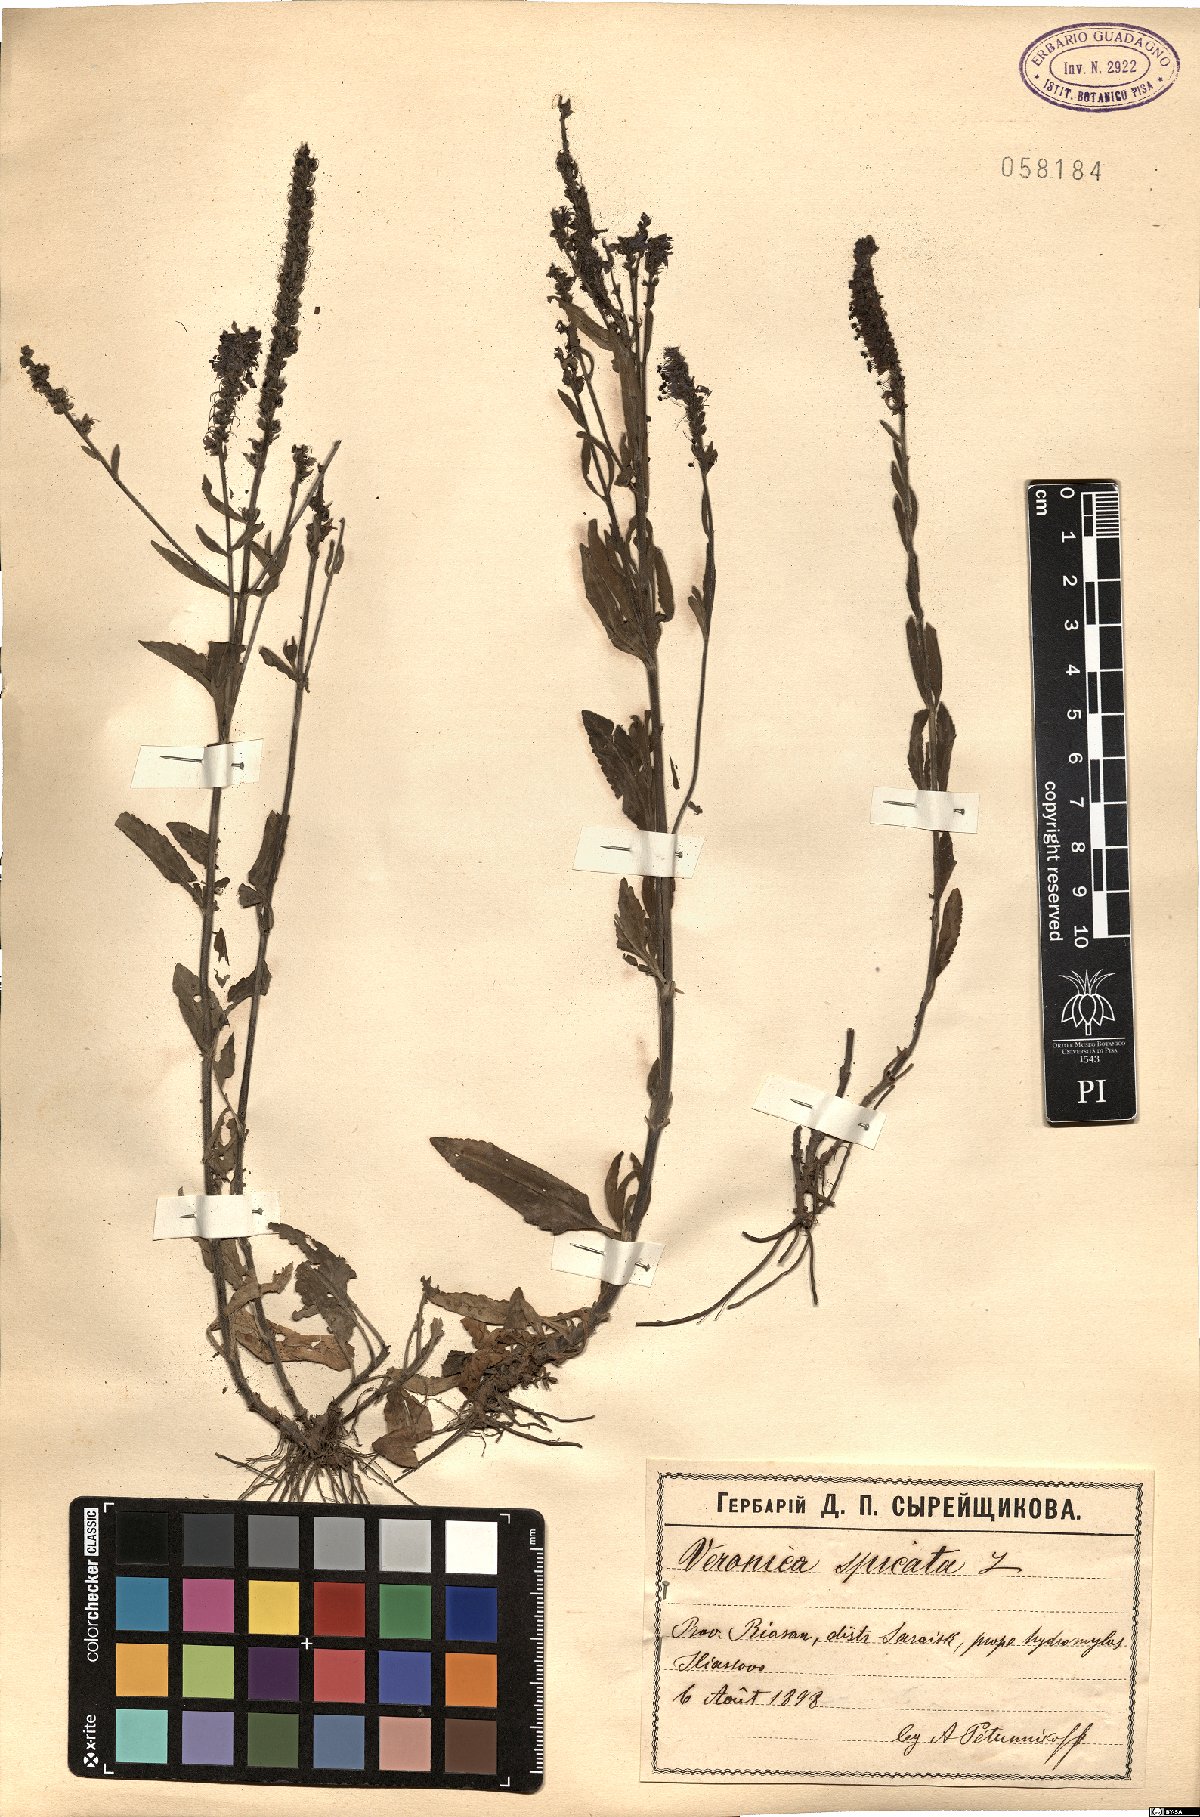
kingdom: Plantae
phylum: Tracheophyta
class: Magnoliopsida
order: Lamiales
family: Plantaginaceae
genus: Veronica
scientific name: Veronica spicata
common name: Spiked speedwell
